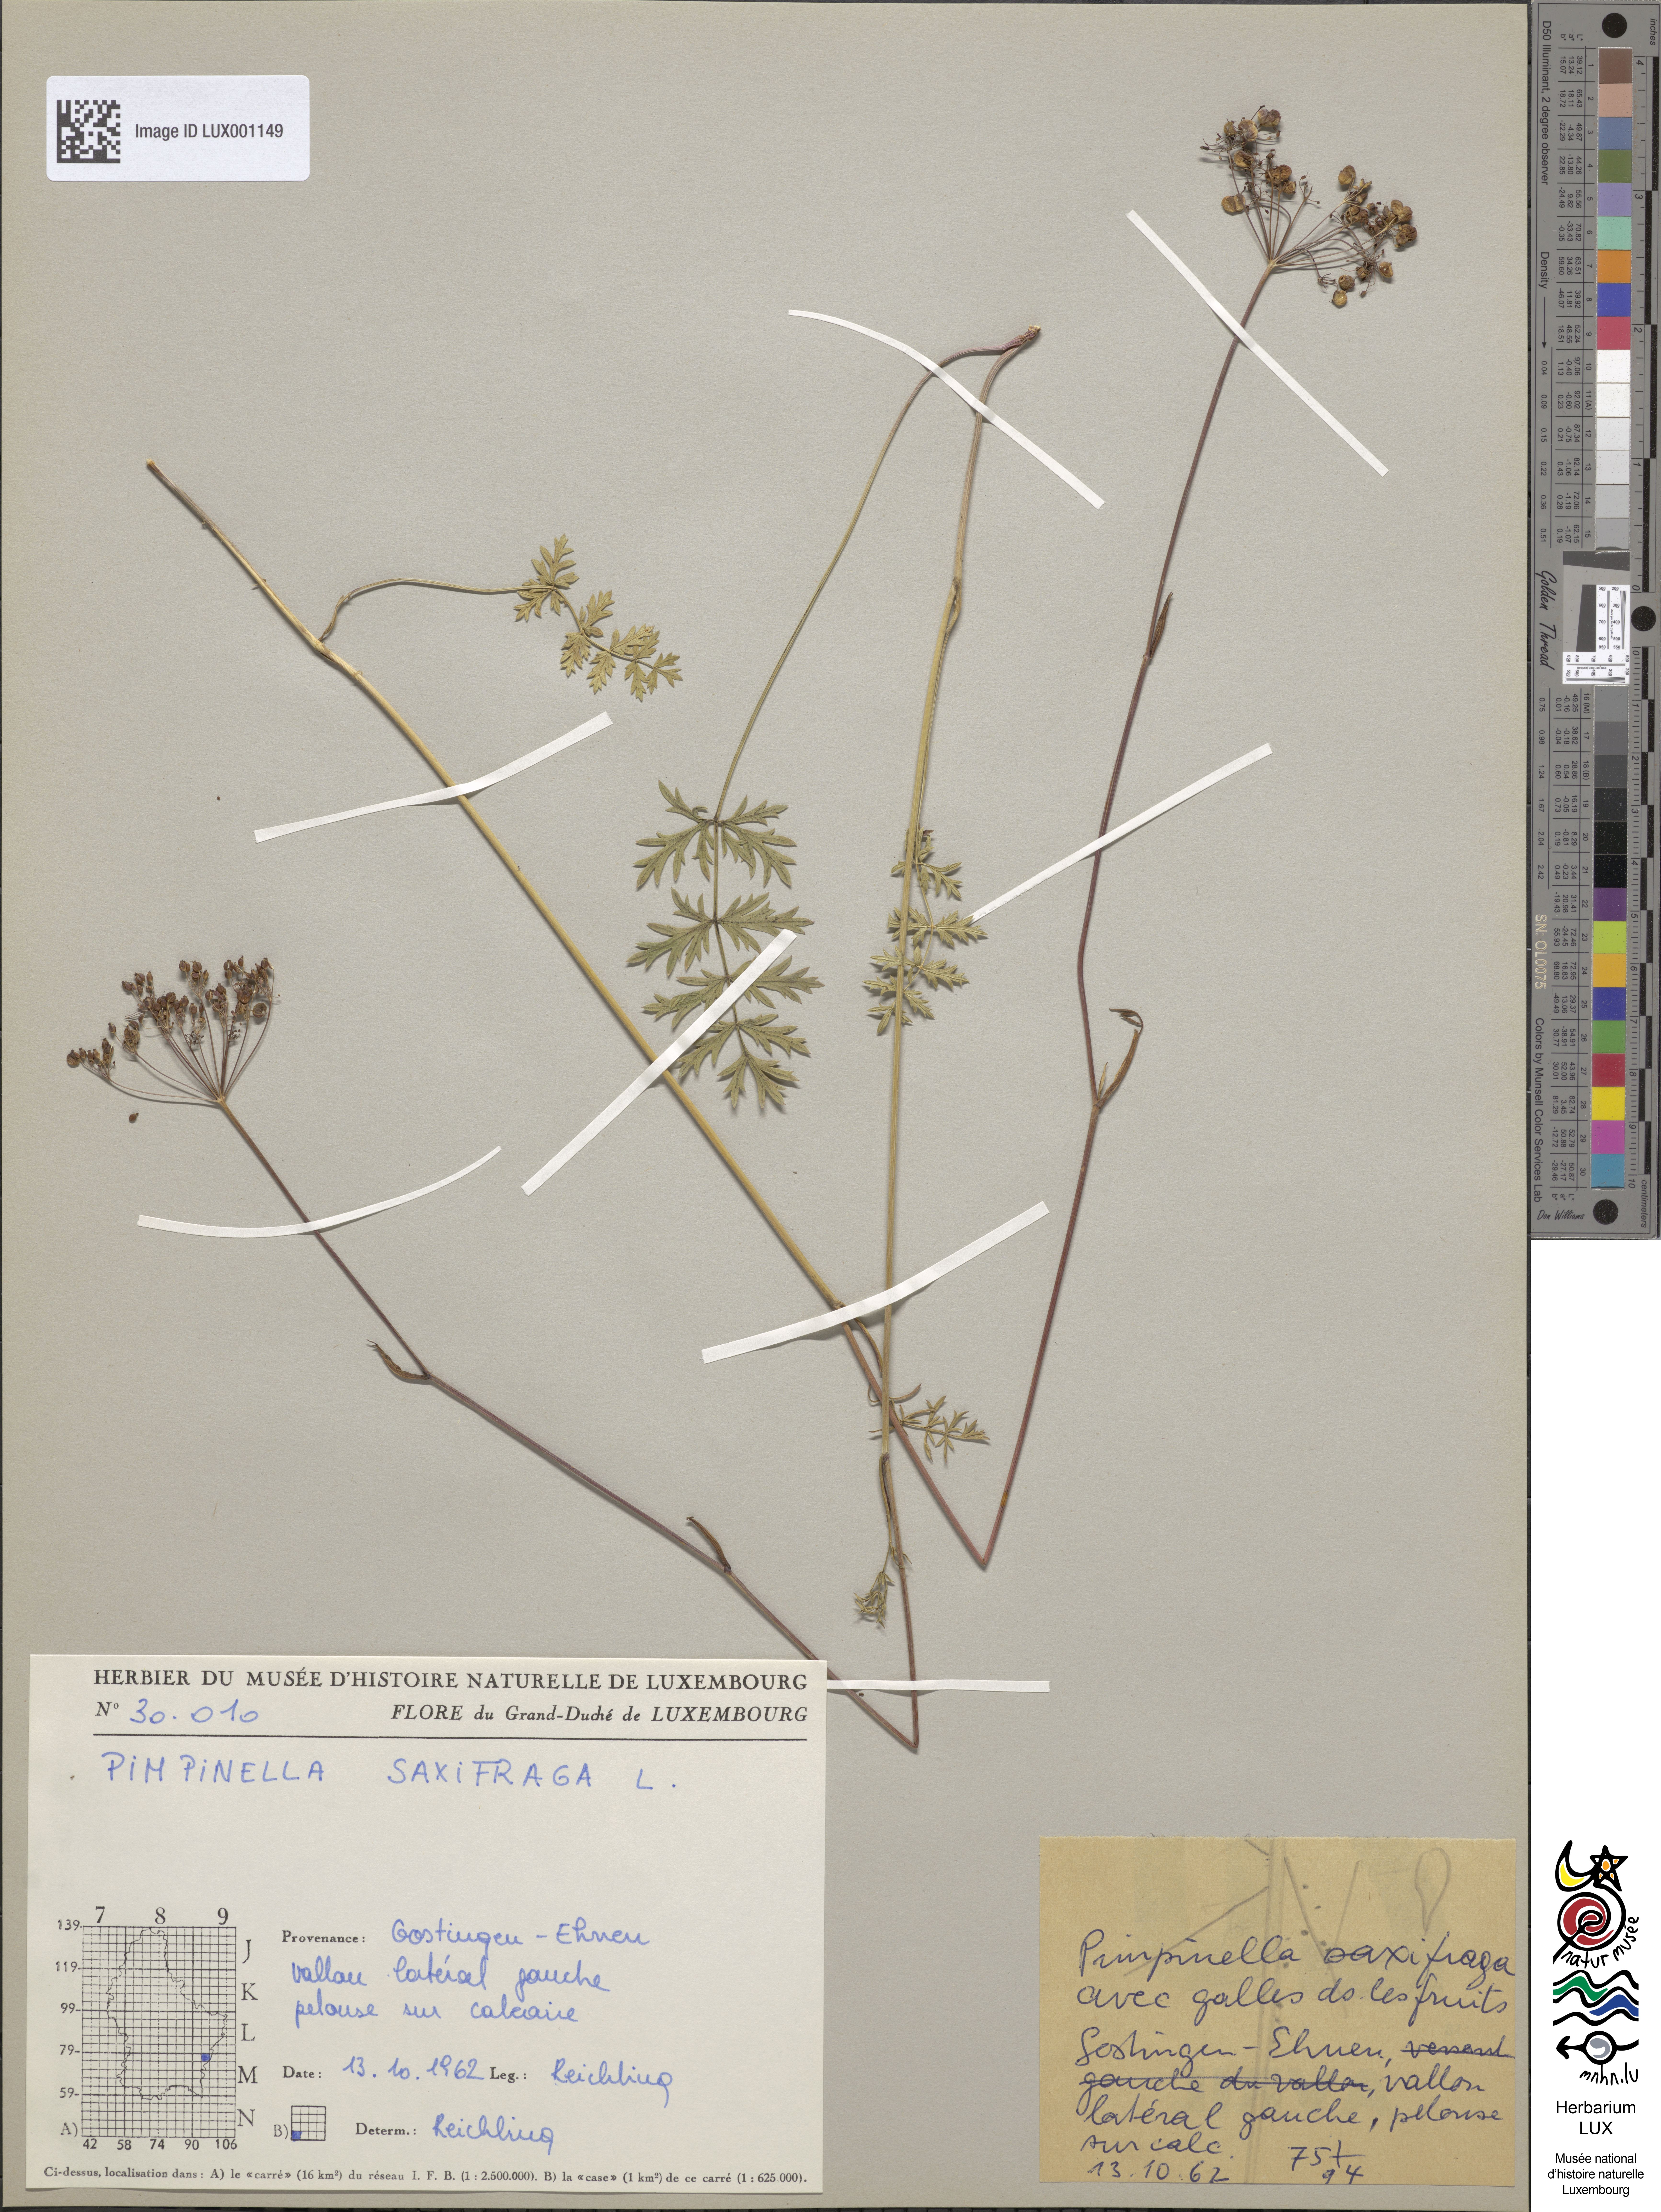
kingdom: Plantae
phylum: Tracheophyta
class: Magnoliopsida
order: Apiales
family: Apiaceae
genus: Pimpinella
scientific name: Pimpinella saxifraga
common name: Burnet-saxifrage
